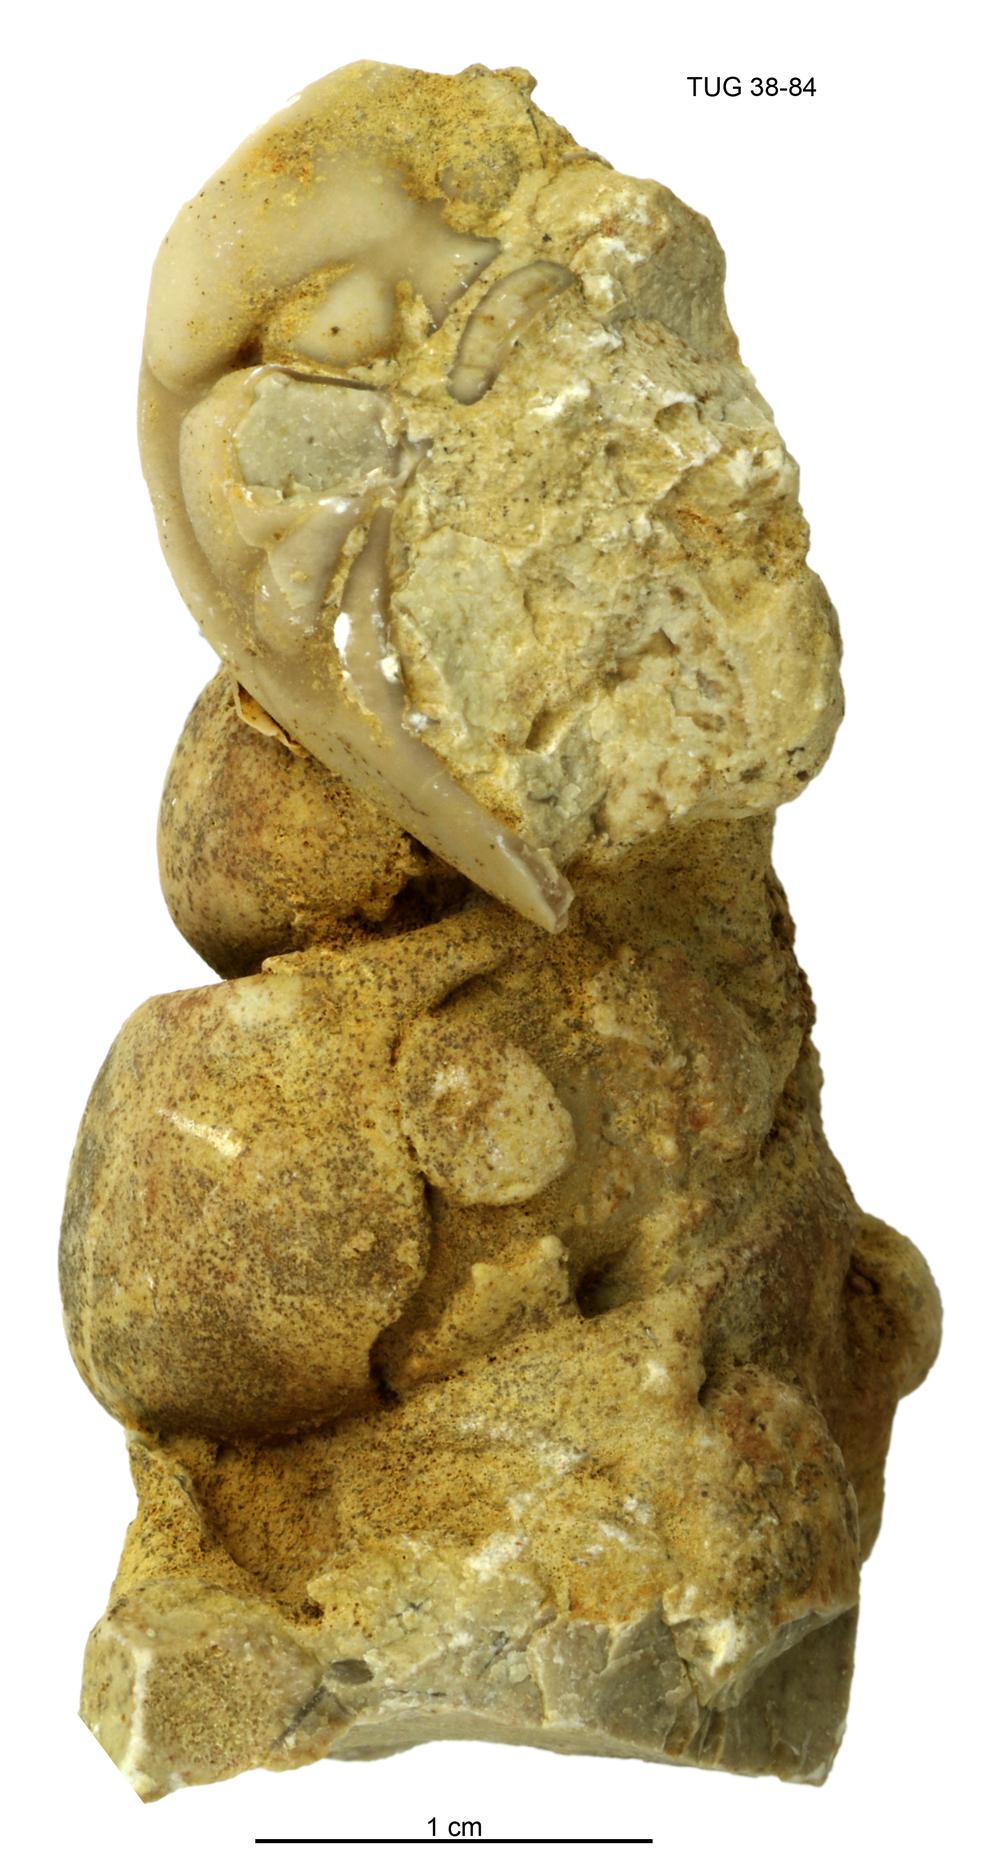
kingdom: Animalia
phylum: Mollusca
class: Gastropoda
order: Pleurotomariida
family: Murchisoniidae
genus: Murchisonia
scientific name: Murchisonia insignis
